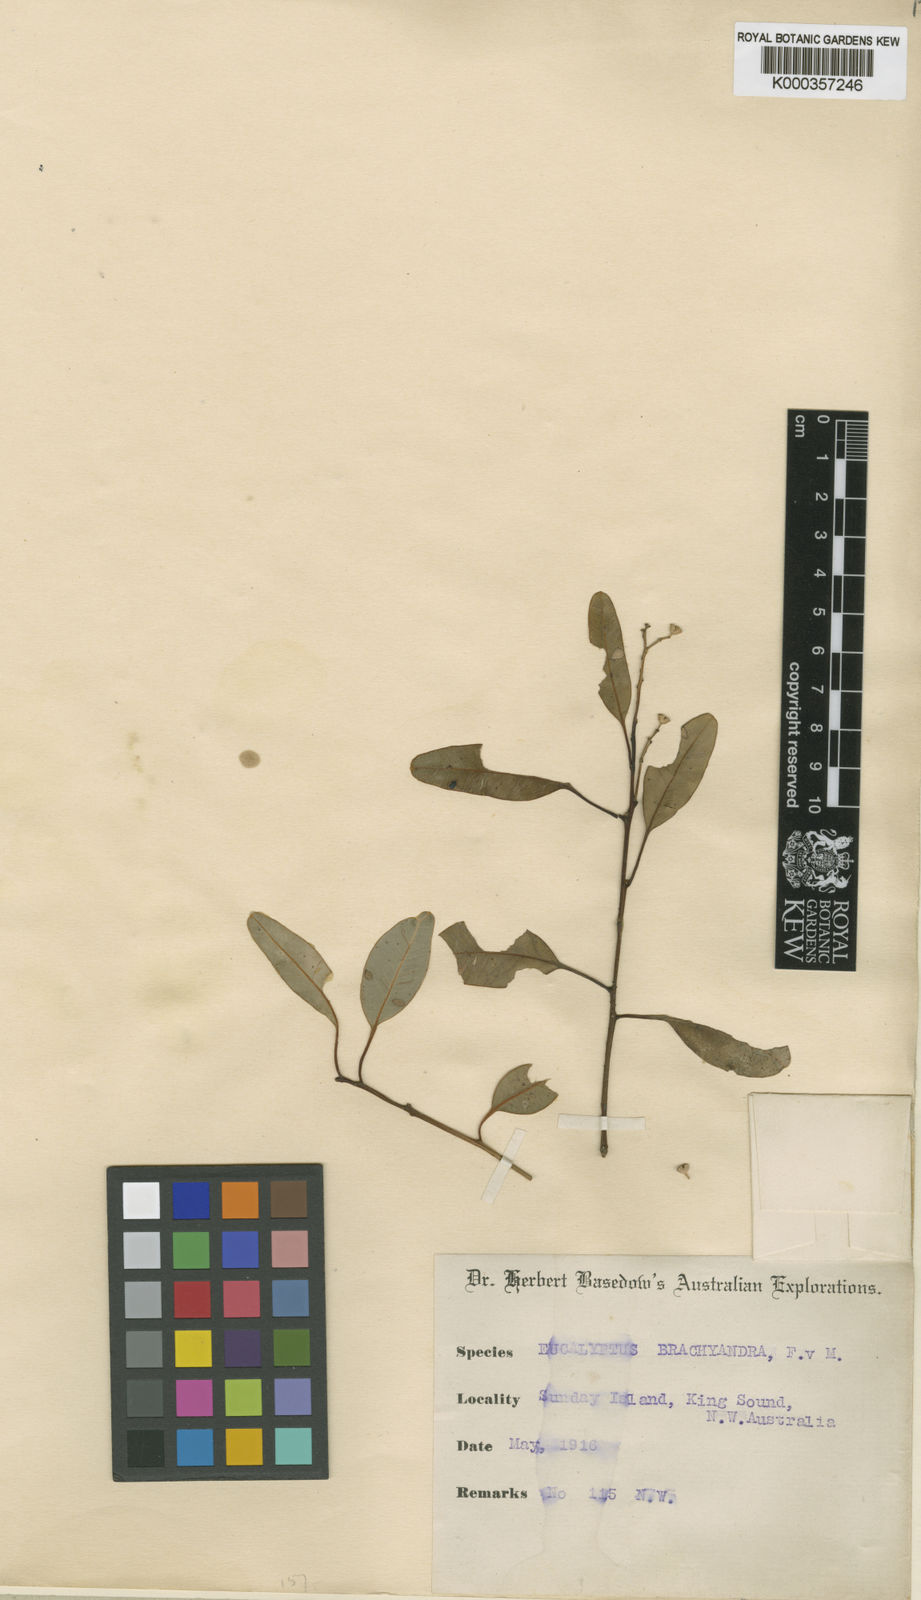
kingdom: Plantae
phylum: Tracheophyta
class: Magnoliopsida
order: Myrtales
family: Myrtaceae
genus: Eucalyptus
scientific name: Eucalyptus brachyandra
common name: Tropical-red-box
